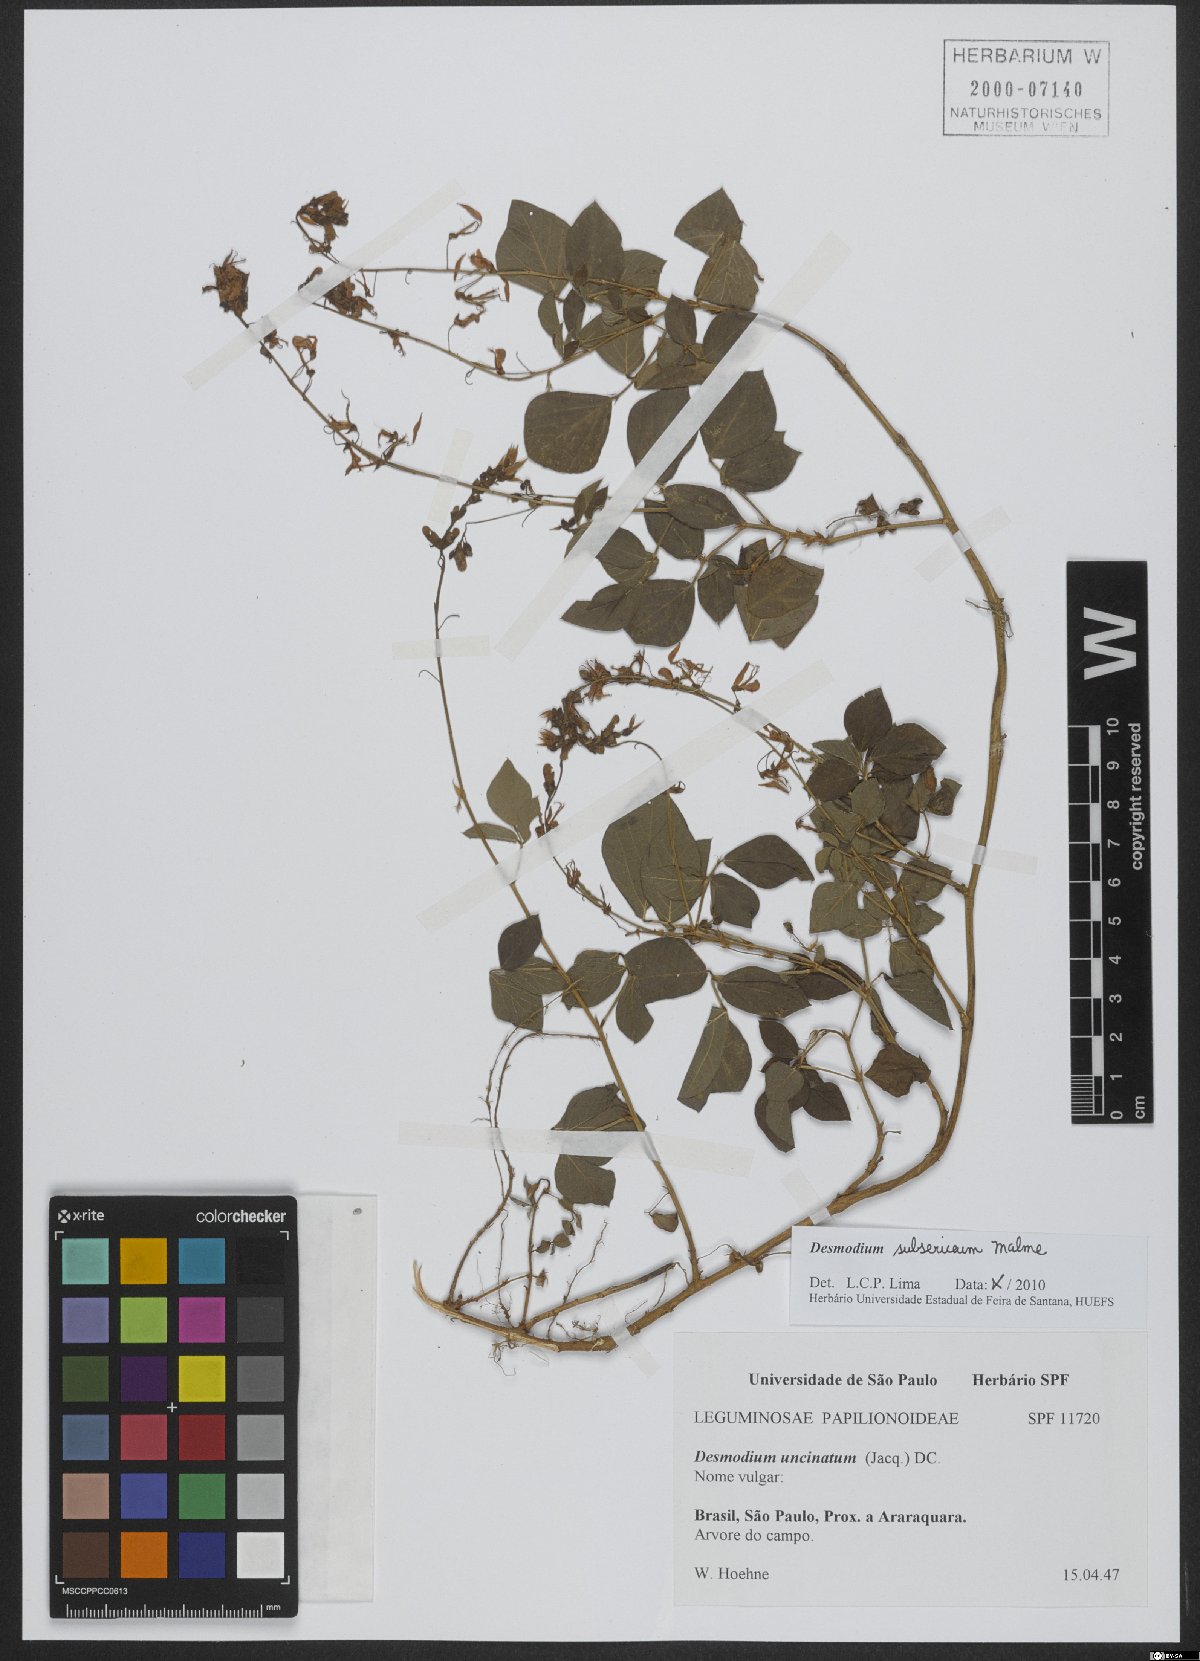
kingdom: Plantae
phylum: Tracheophyta
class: Magnoliopsida
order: Fabales
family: Fabaceae
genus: Desmodium
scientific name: Desmodium subsericeum
